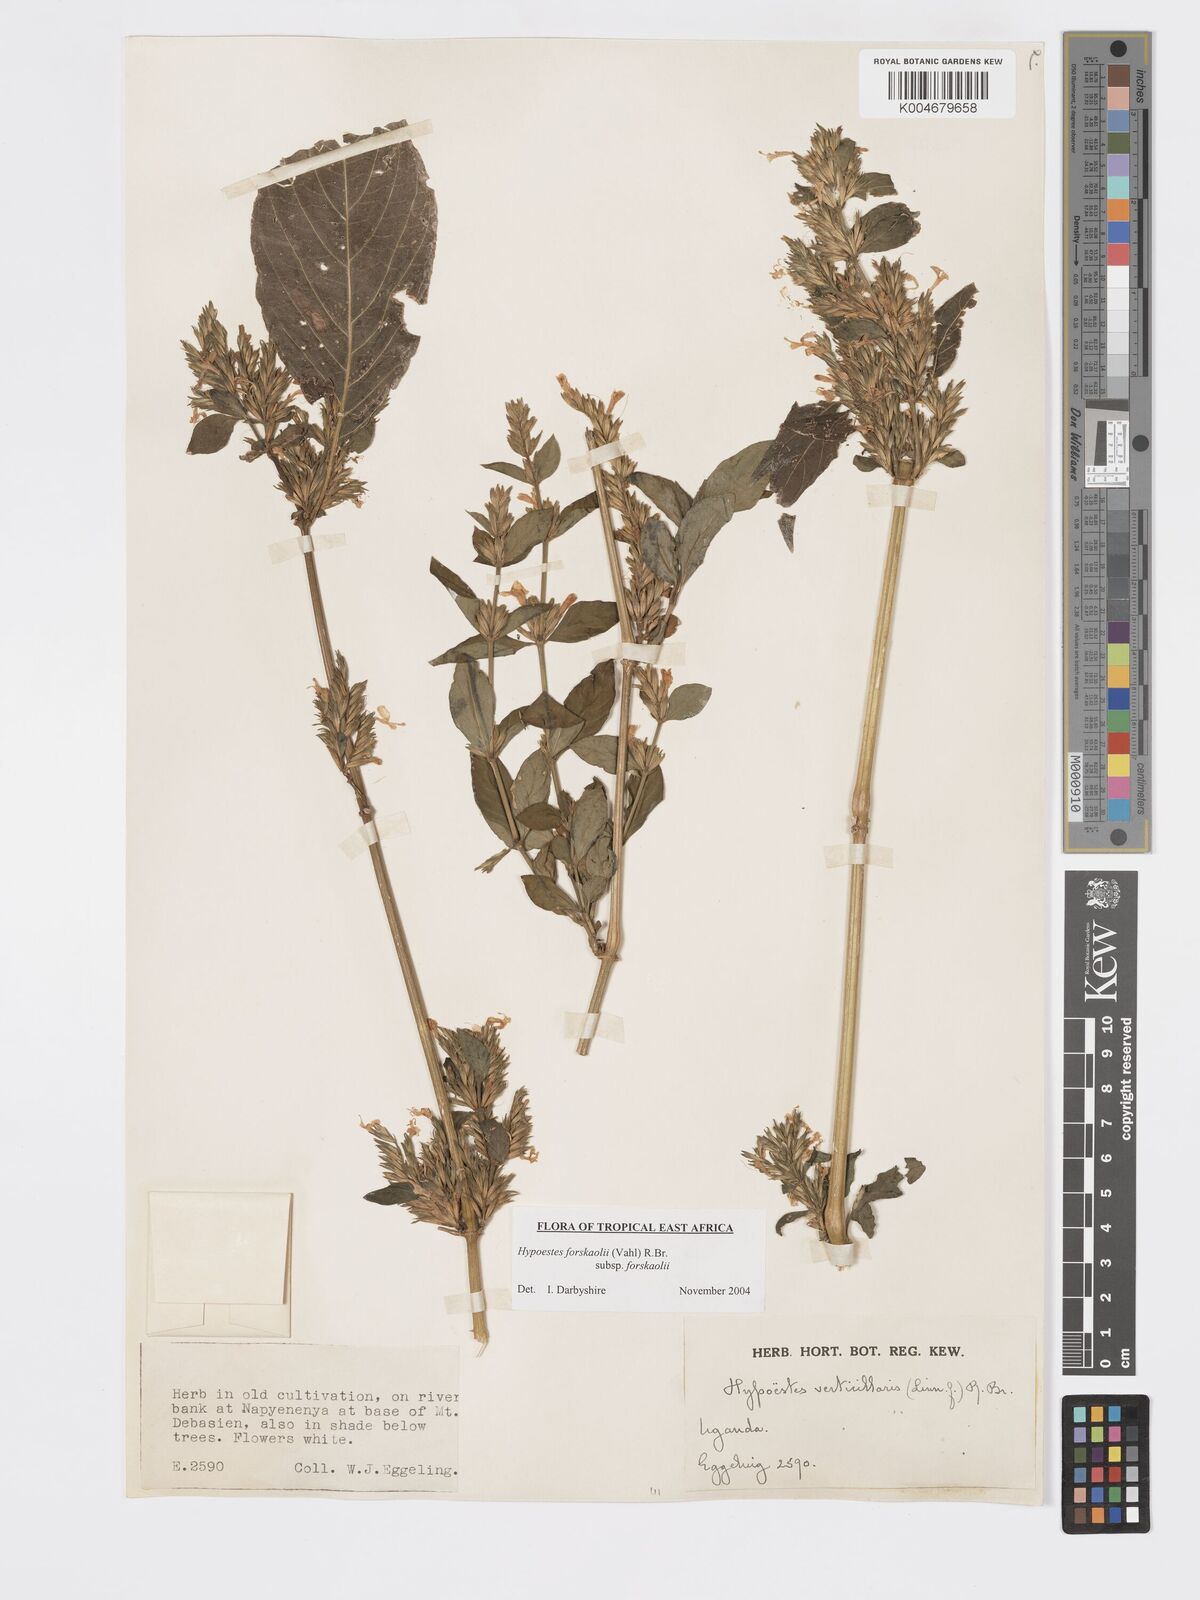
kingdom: Plantae
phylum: Tracheophyta
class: Magnoliopsida
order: Lamiales
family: Acanthaceae
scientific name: Acanthaceae
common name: Acanthaceae
